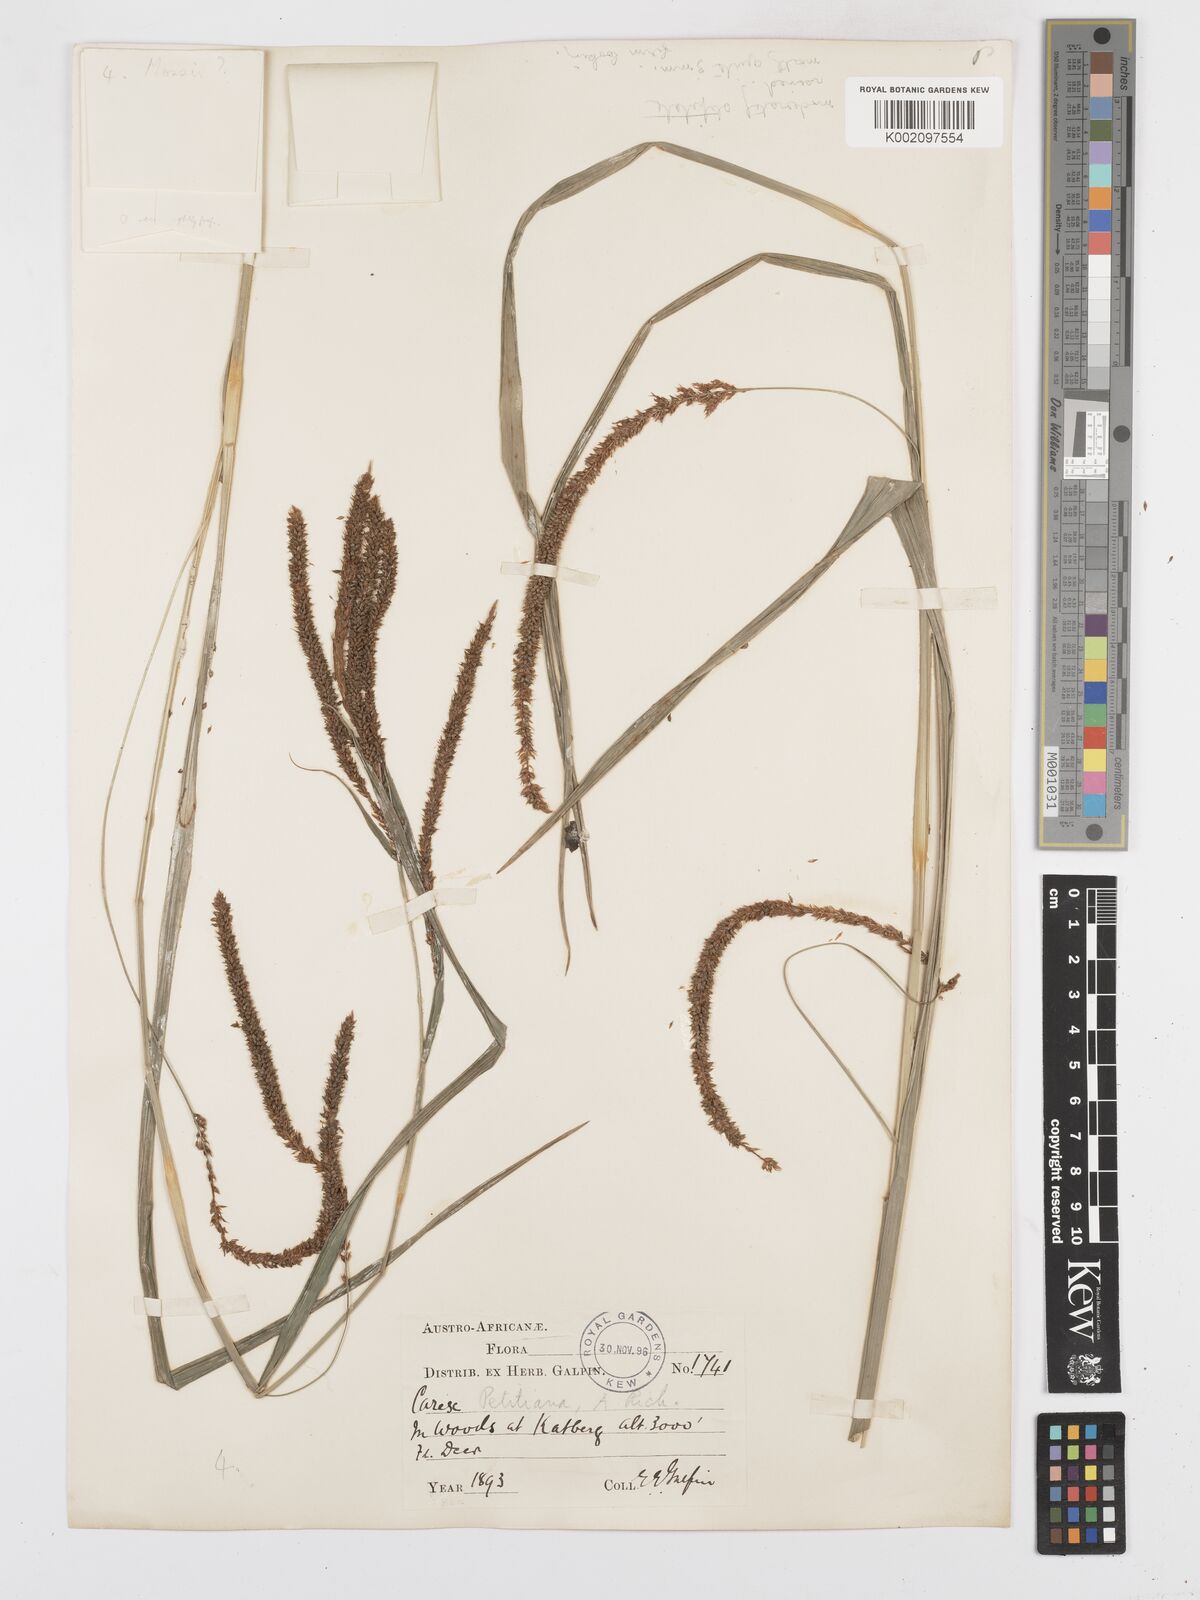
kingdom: Plantae
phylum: Tracheophyta
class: Liliopsida
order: Poales
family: Cyperaceae
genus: Carex
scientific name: Carex petitiana
